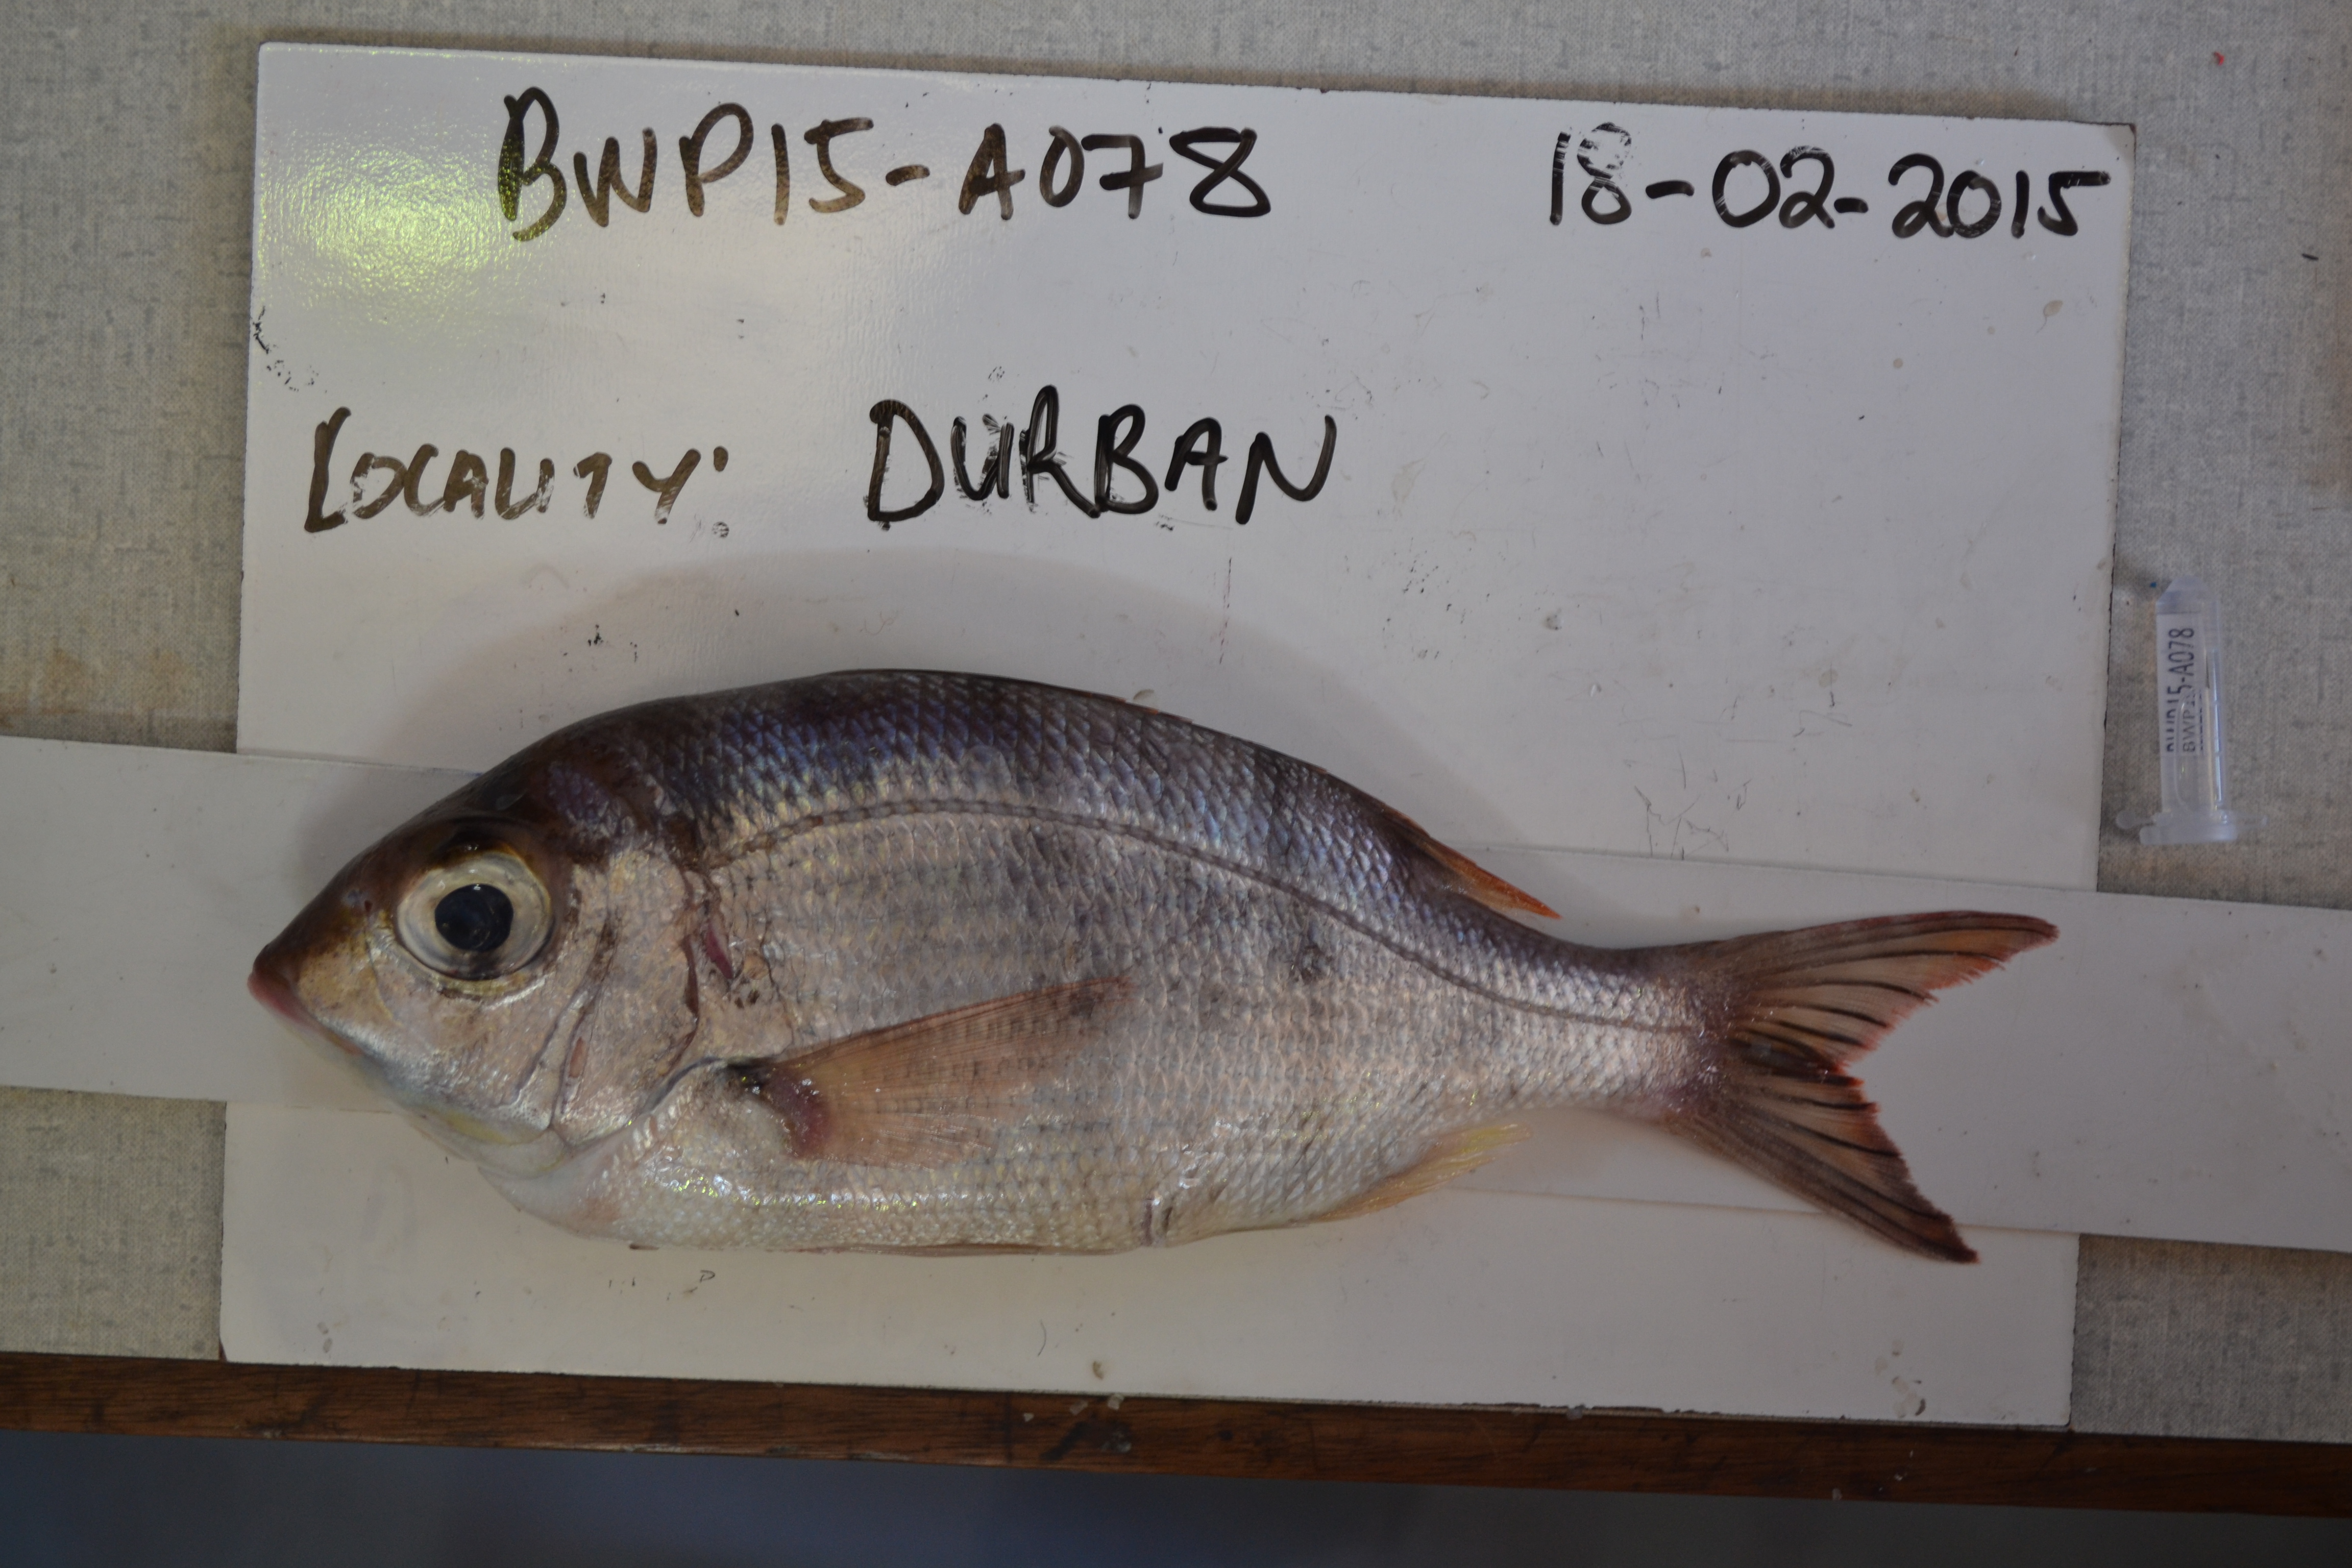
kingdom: Animalia
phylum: Chordata
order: Perciformes
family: Lethrinidae
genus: Gymnocranius
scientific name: Gymnocranius griseus
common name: Grey emperor
